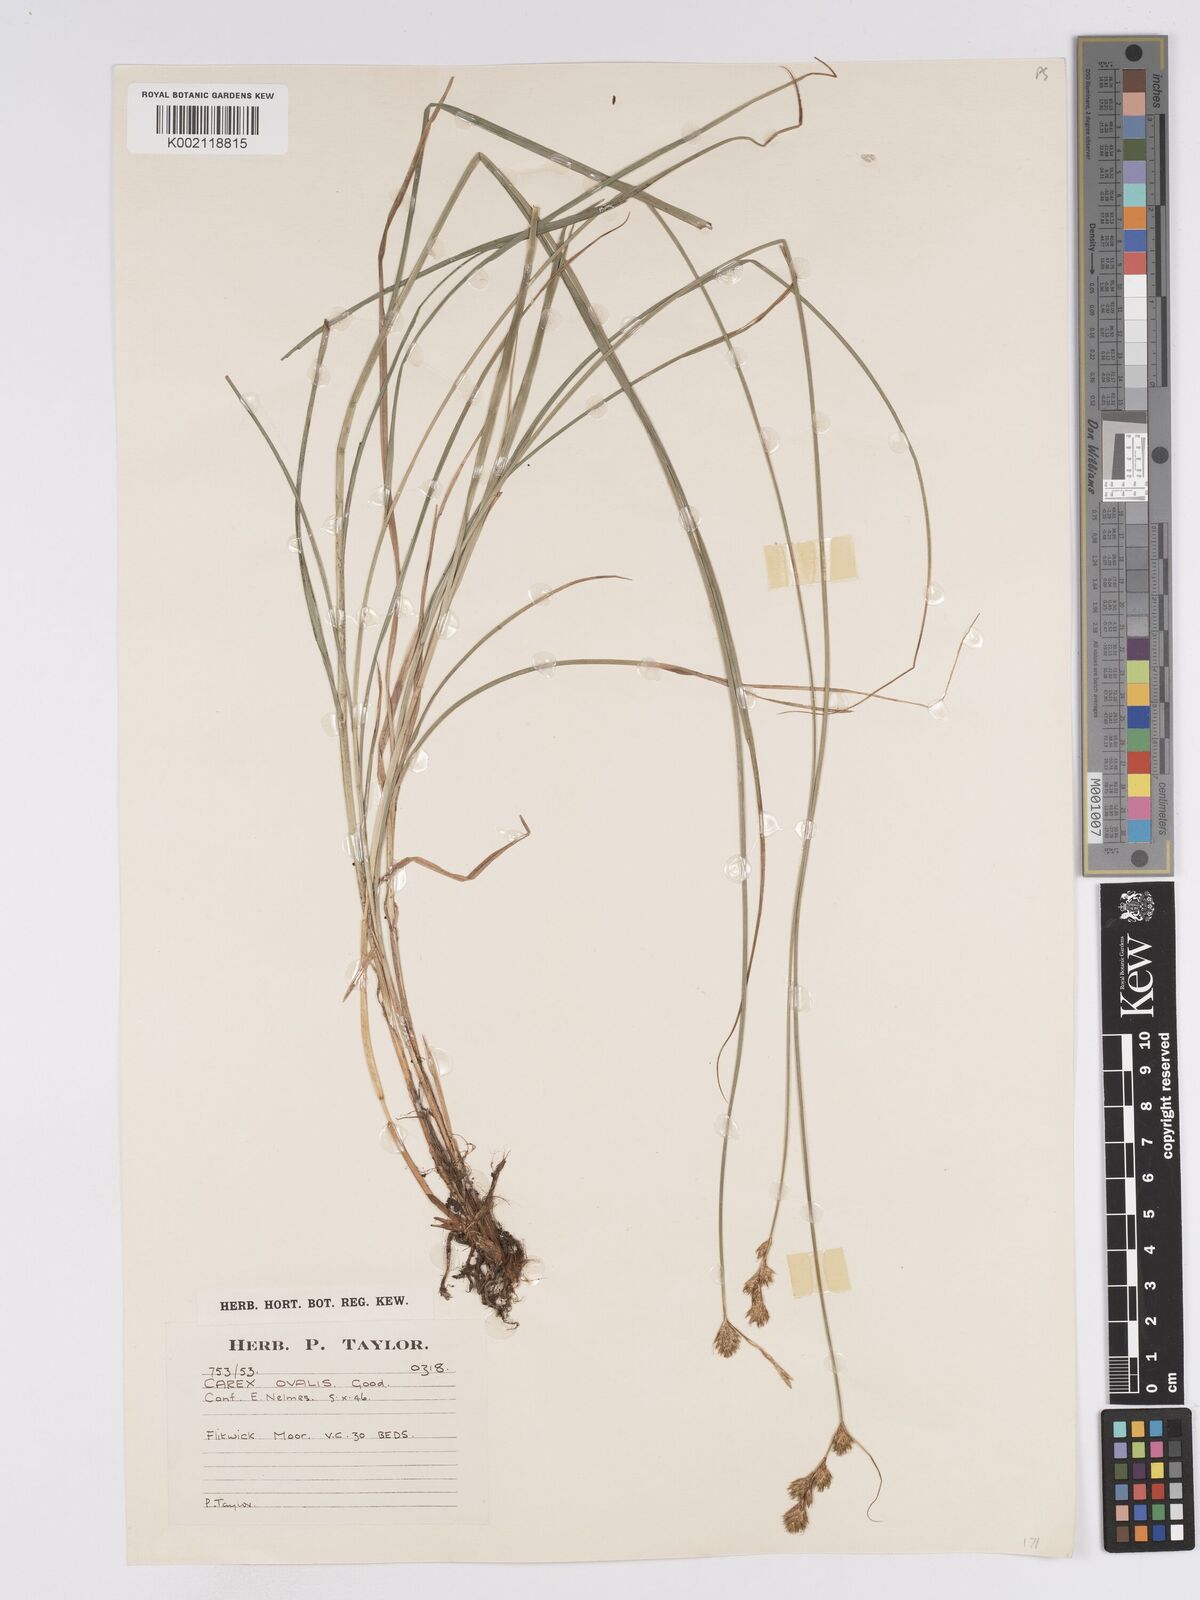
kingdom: Plantae
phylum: Tracheophyta
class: Liliopsida
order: Poales
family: Cyperaceae
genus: Carex
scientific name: Carex leporina
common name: Oval sedge
